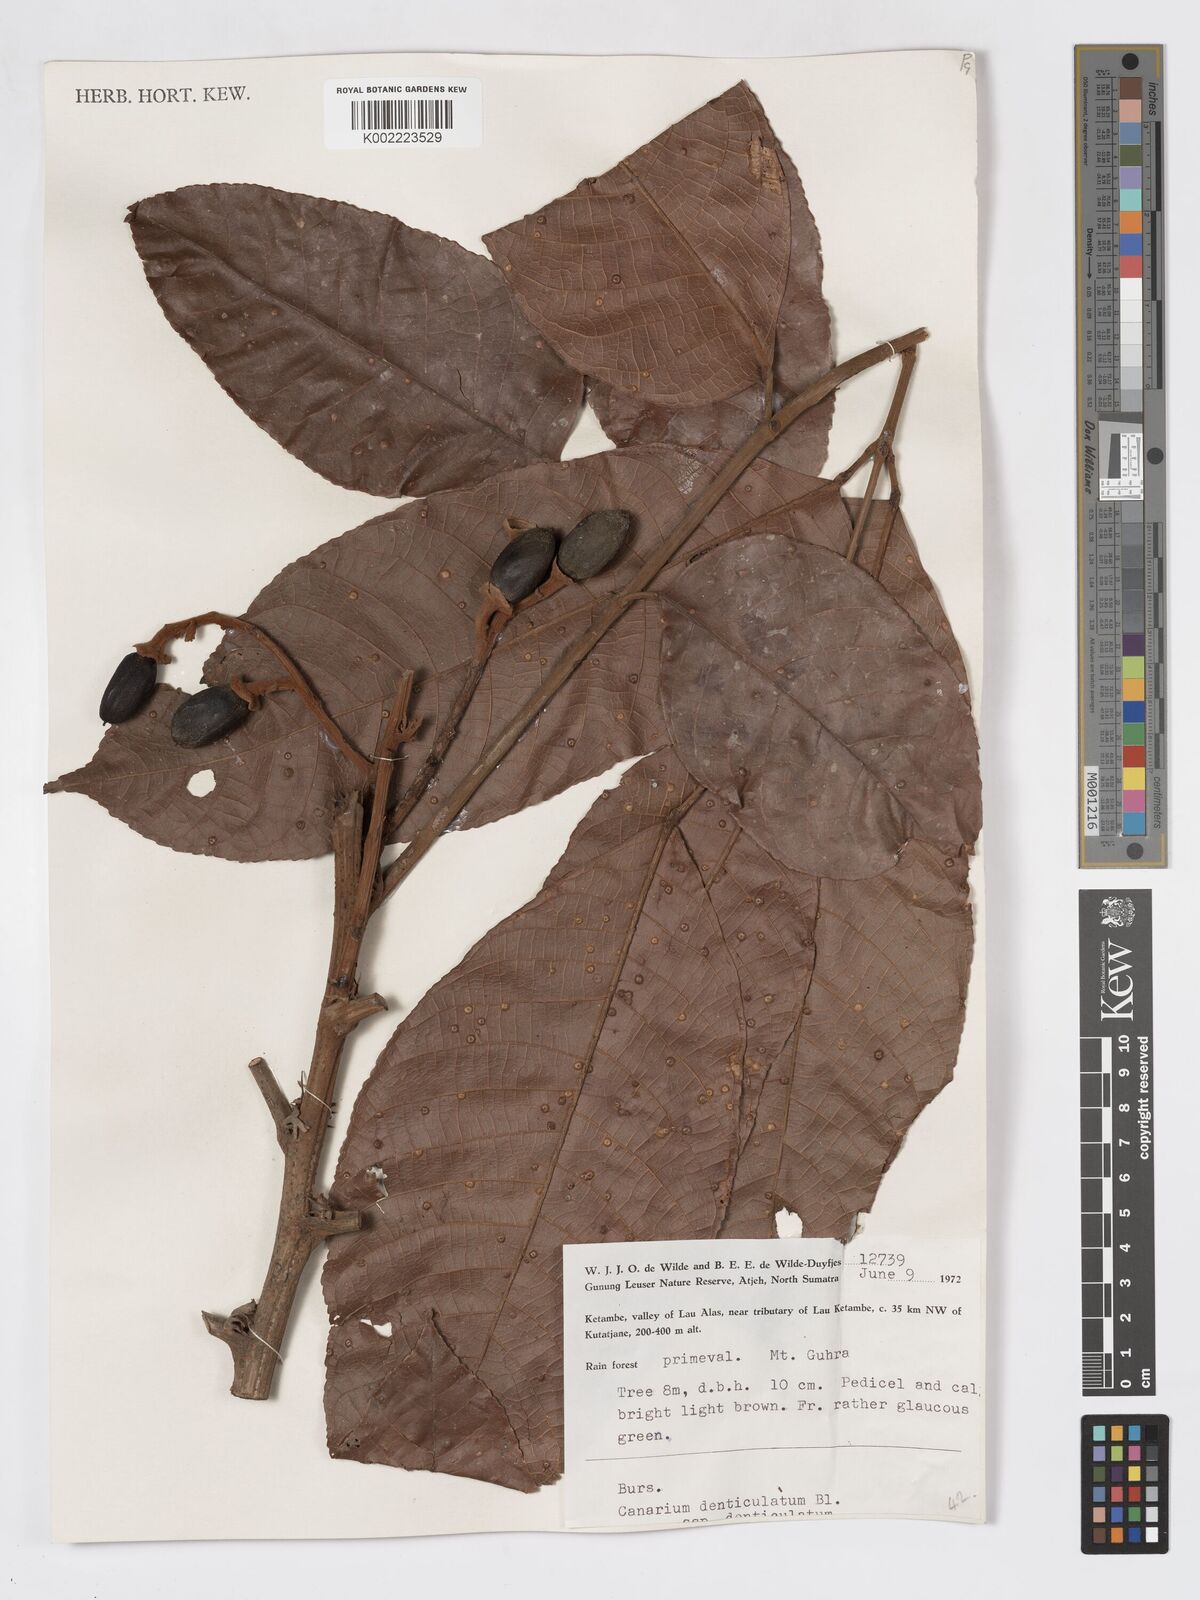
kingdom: Plantae
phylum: Tracheophyta
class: Magnoliopsida
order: Sapindales
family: Burseraceae
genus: Canarium
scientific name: Canarium denticulatum
